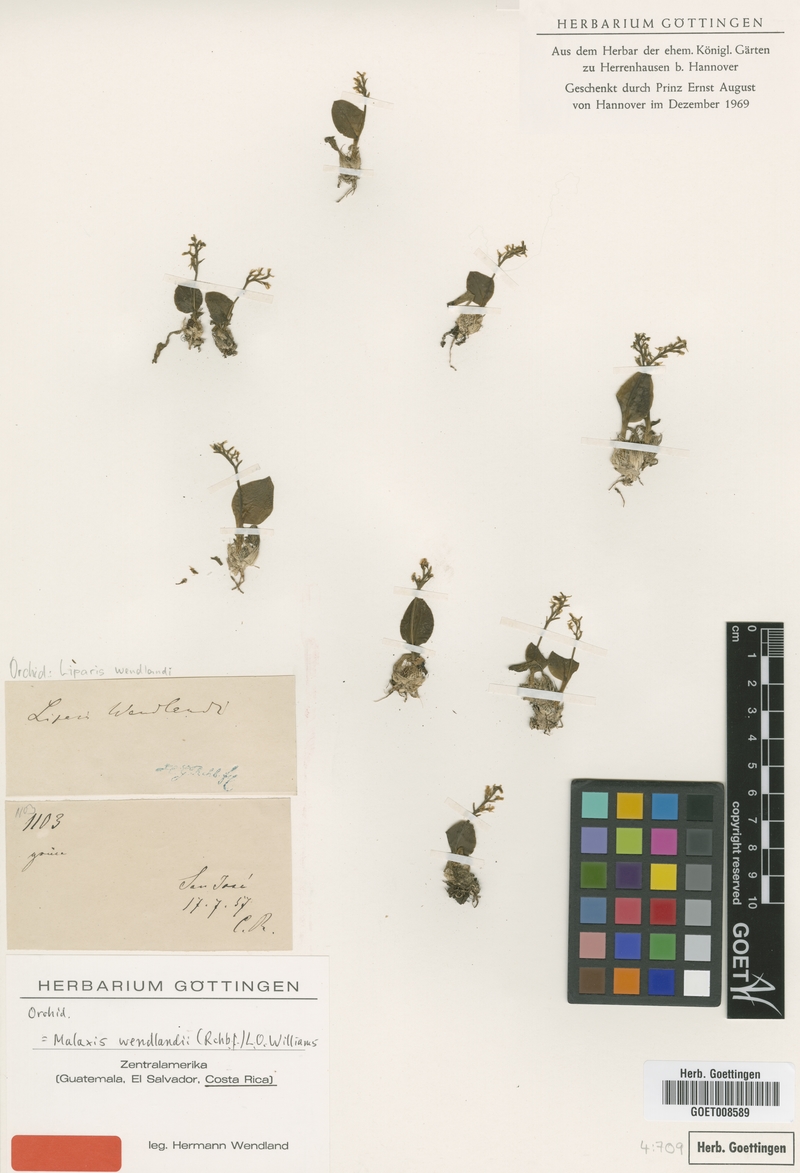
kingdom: Plantae
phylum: Tracheophyta
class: Liliopsida
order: Asparagales
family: Orchidaceae
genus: Crossoliparis
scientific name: Crossoliparis wendlandii
